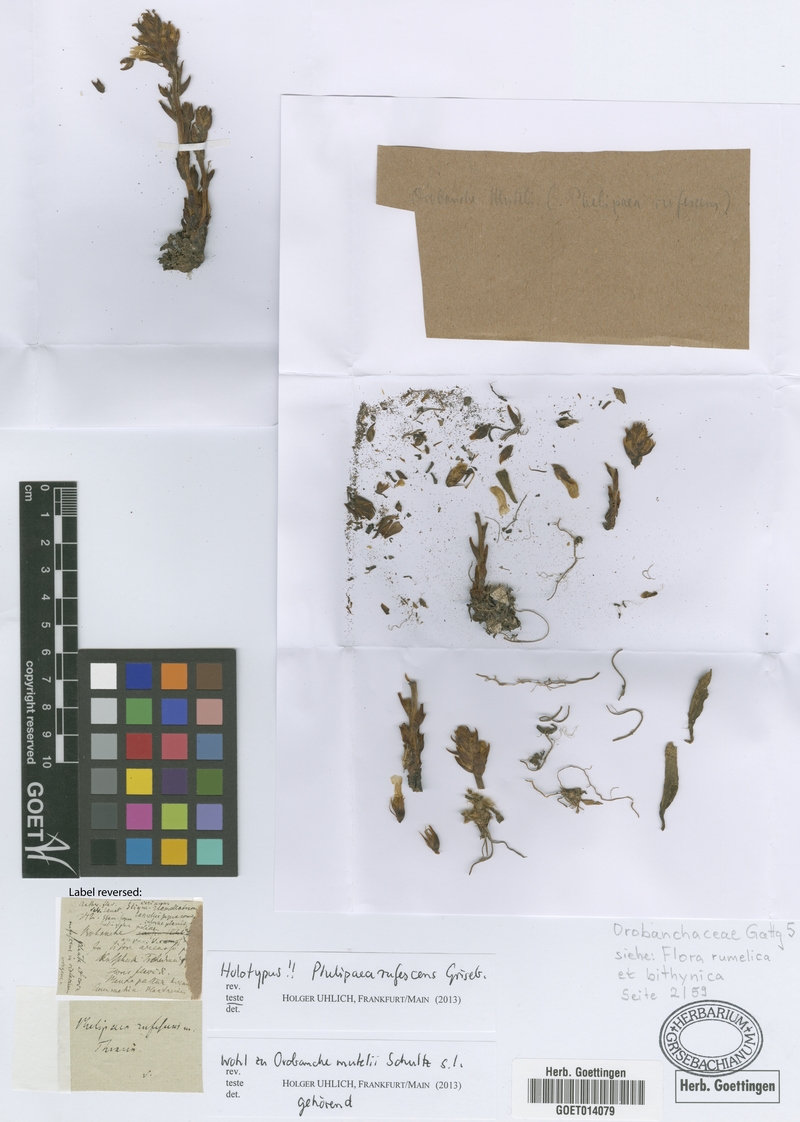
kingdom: Plantae
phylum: Tracheophyta
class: Magnoliopsida
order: Lamiales
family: Orobanchaceae
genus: Phelipanche
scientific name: Phelipanche mutelii
